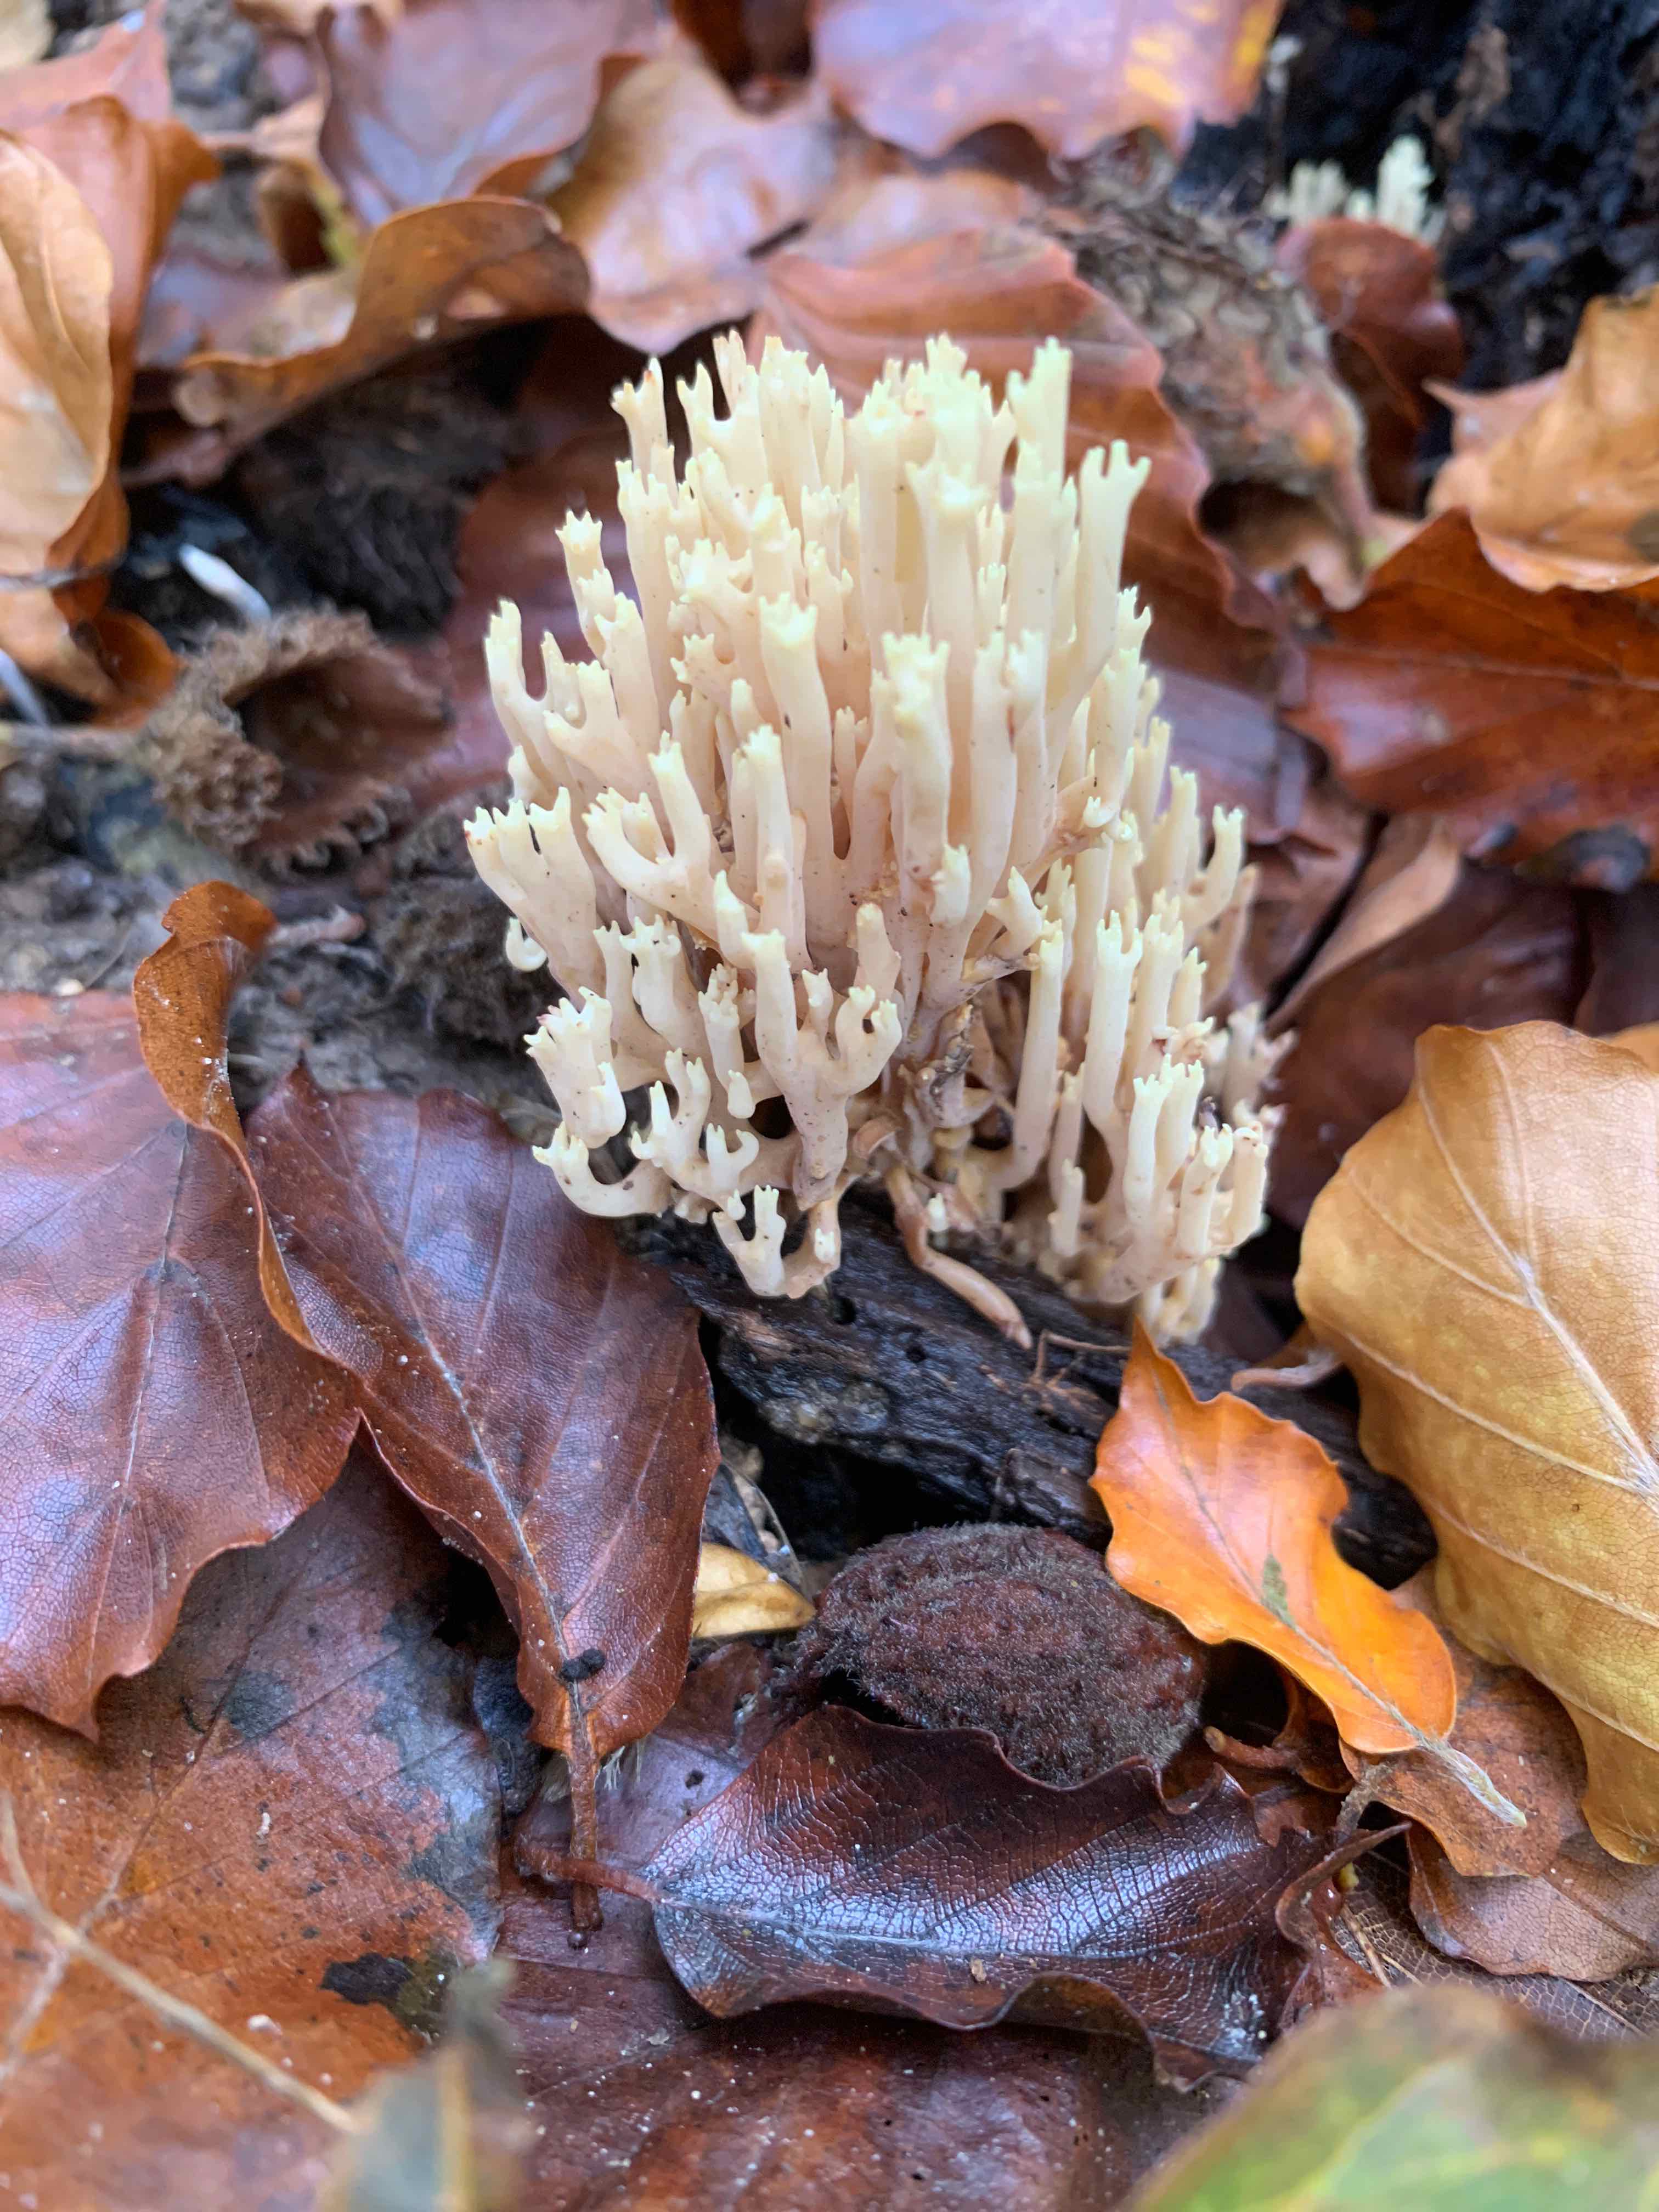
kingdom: Fungi
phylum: Basidiomycota
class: Agaricomycetes
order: Gomphales
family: Gomphaceae
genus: Ramaria
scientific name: Ramaria stricta
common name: rank koralsvamp
